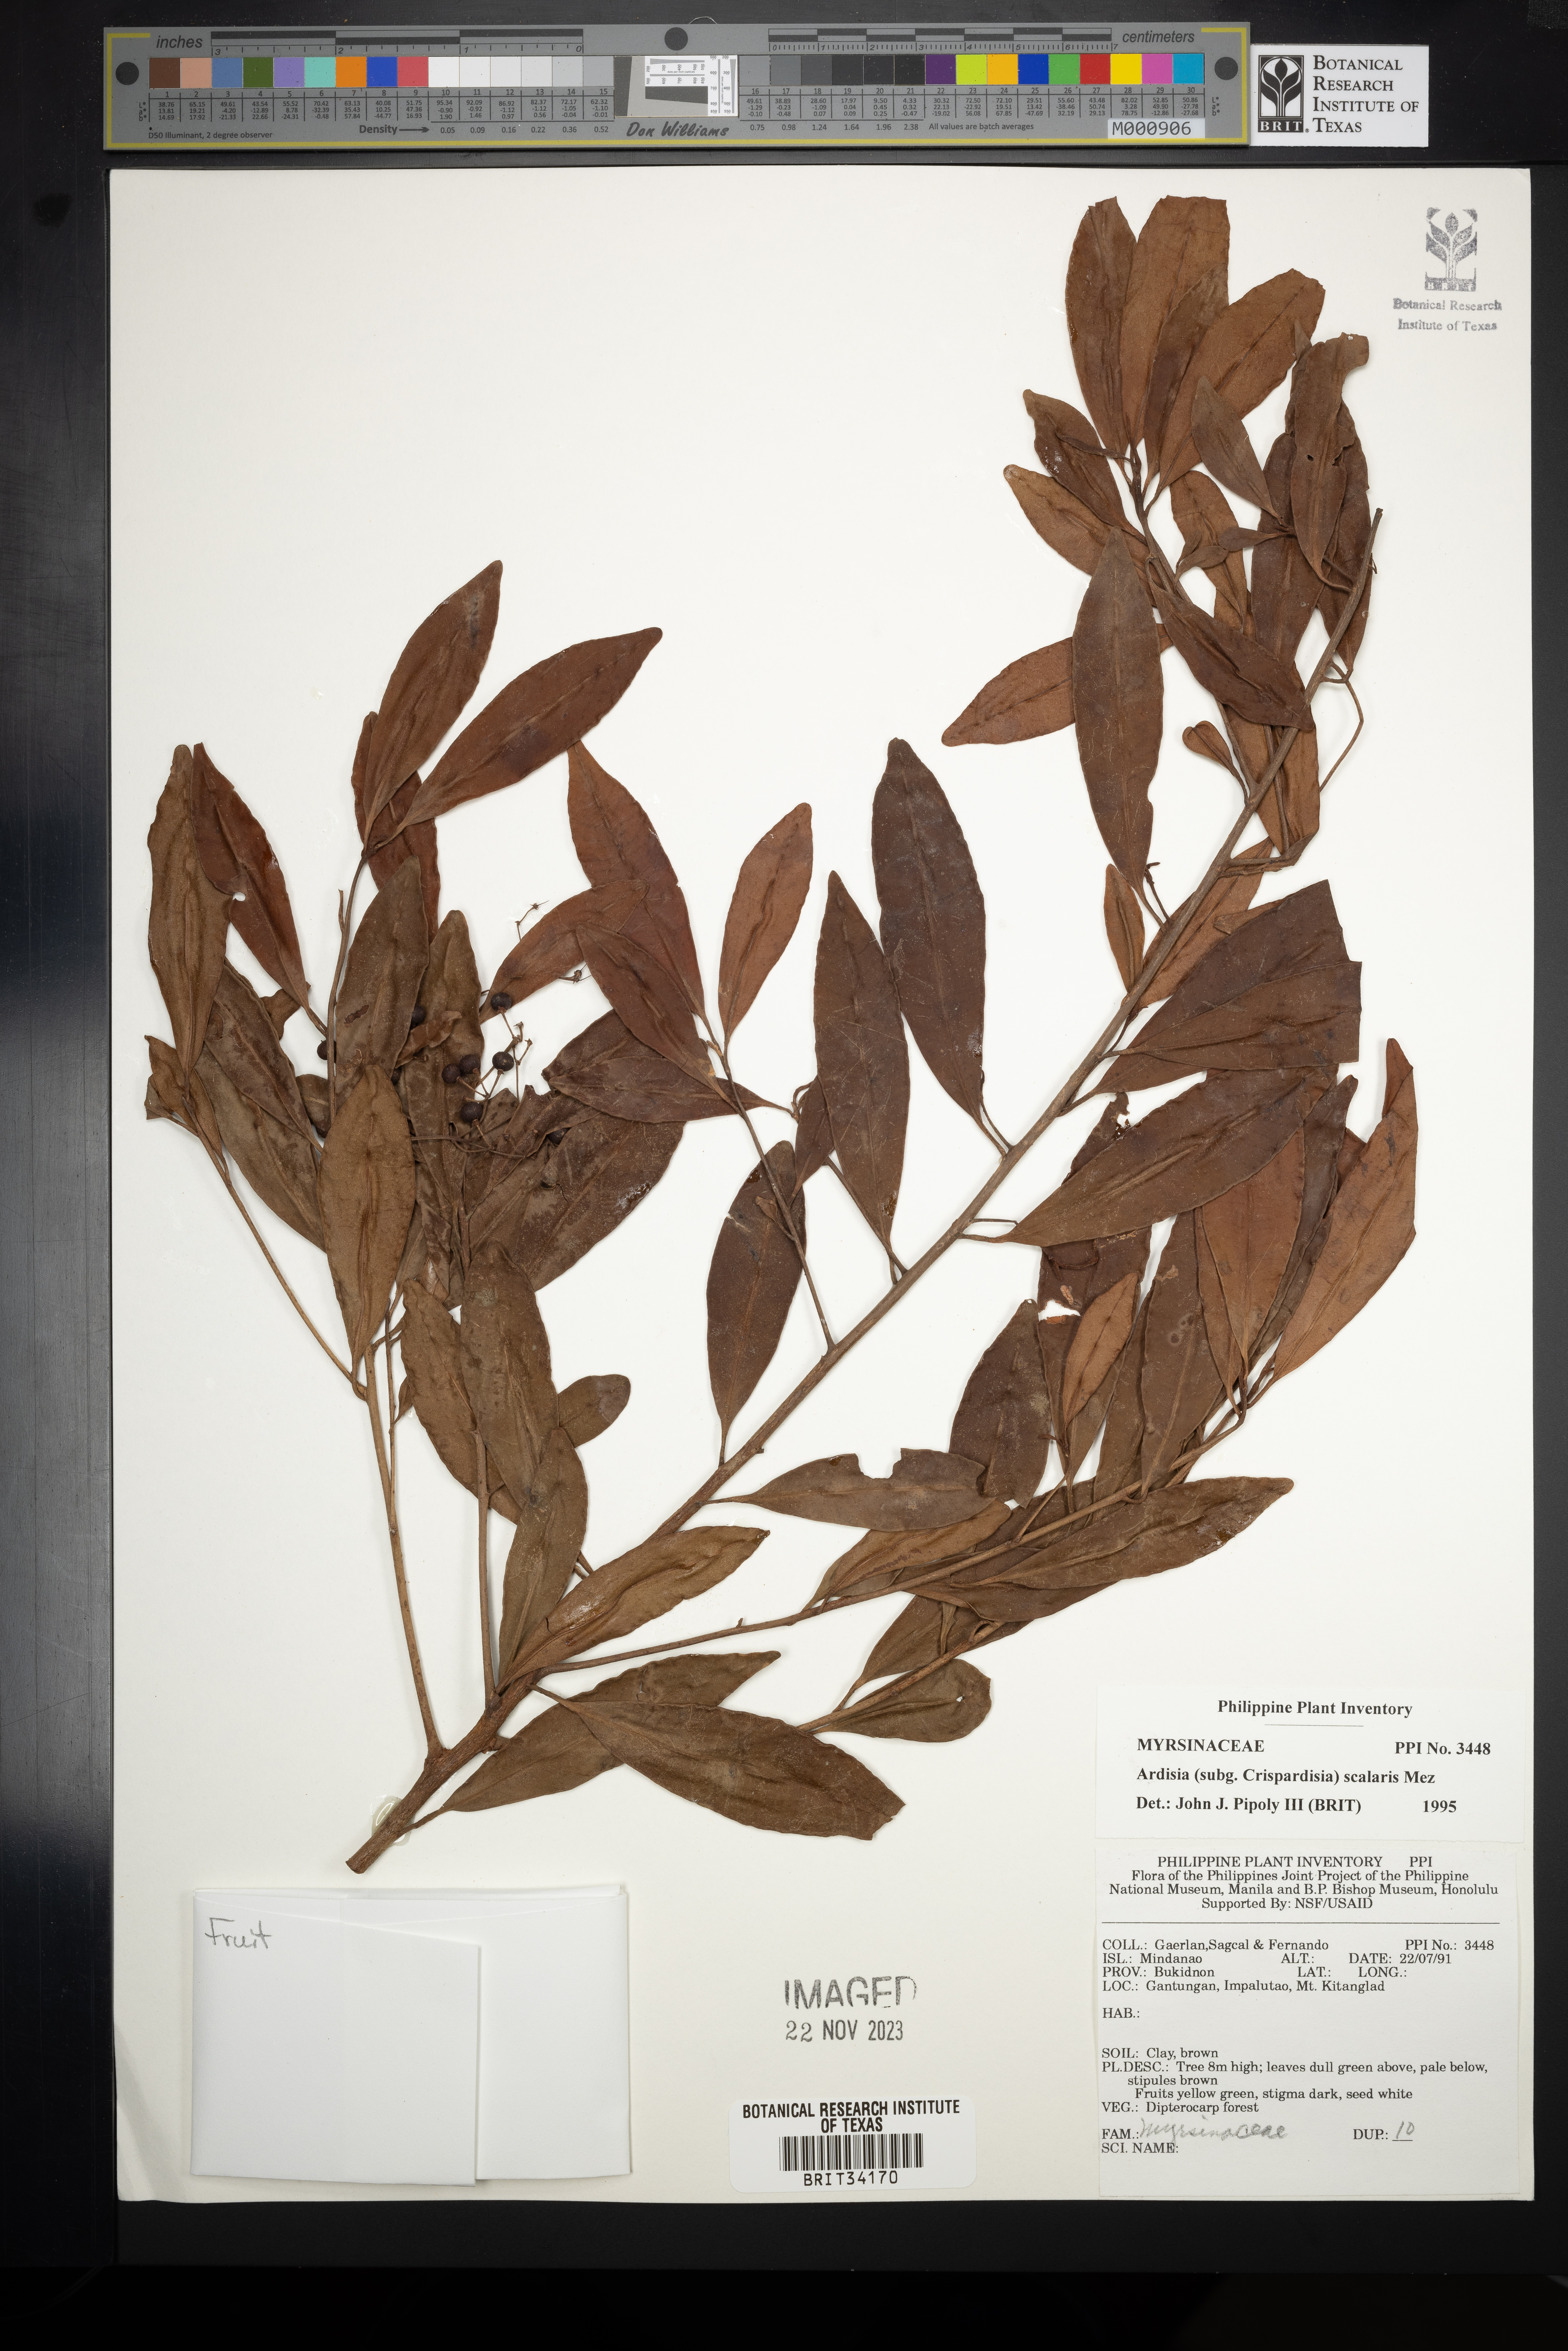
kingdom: Plantae
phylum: Tracheophyta
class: Magnoliopsida
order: Ericales
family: Primulaceae
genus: Ardisia
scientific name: Ardisia scalaris
